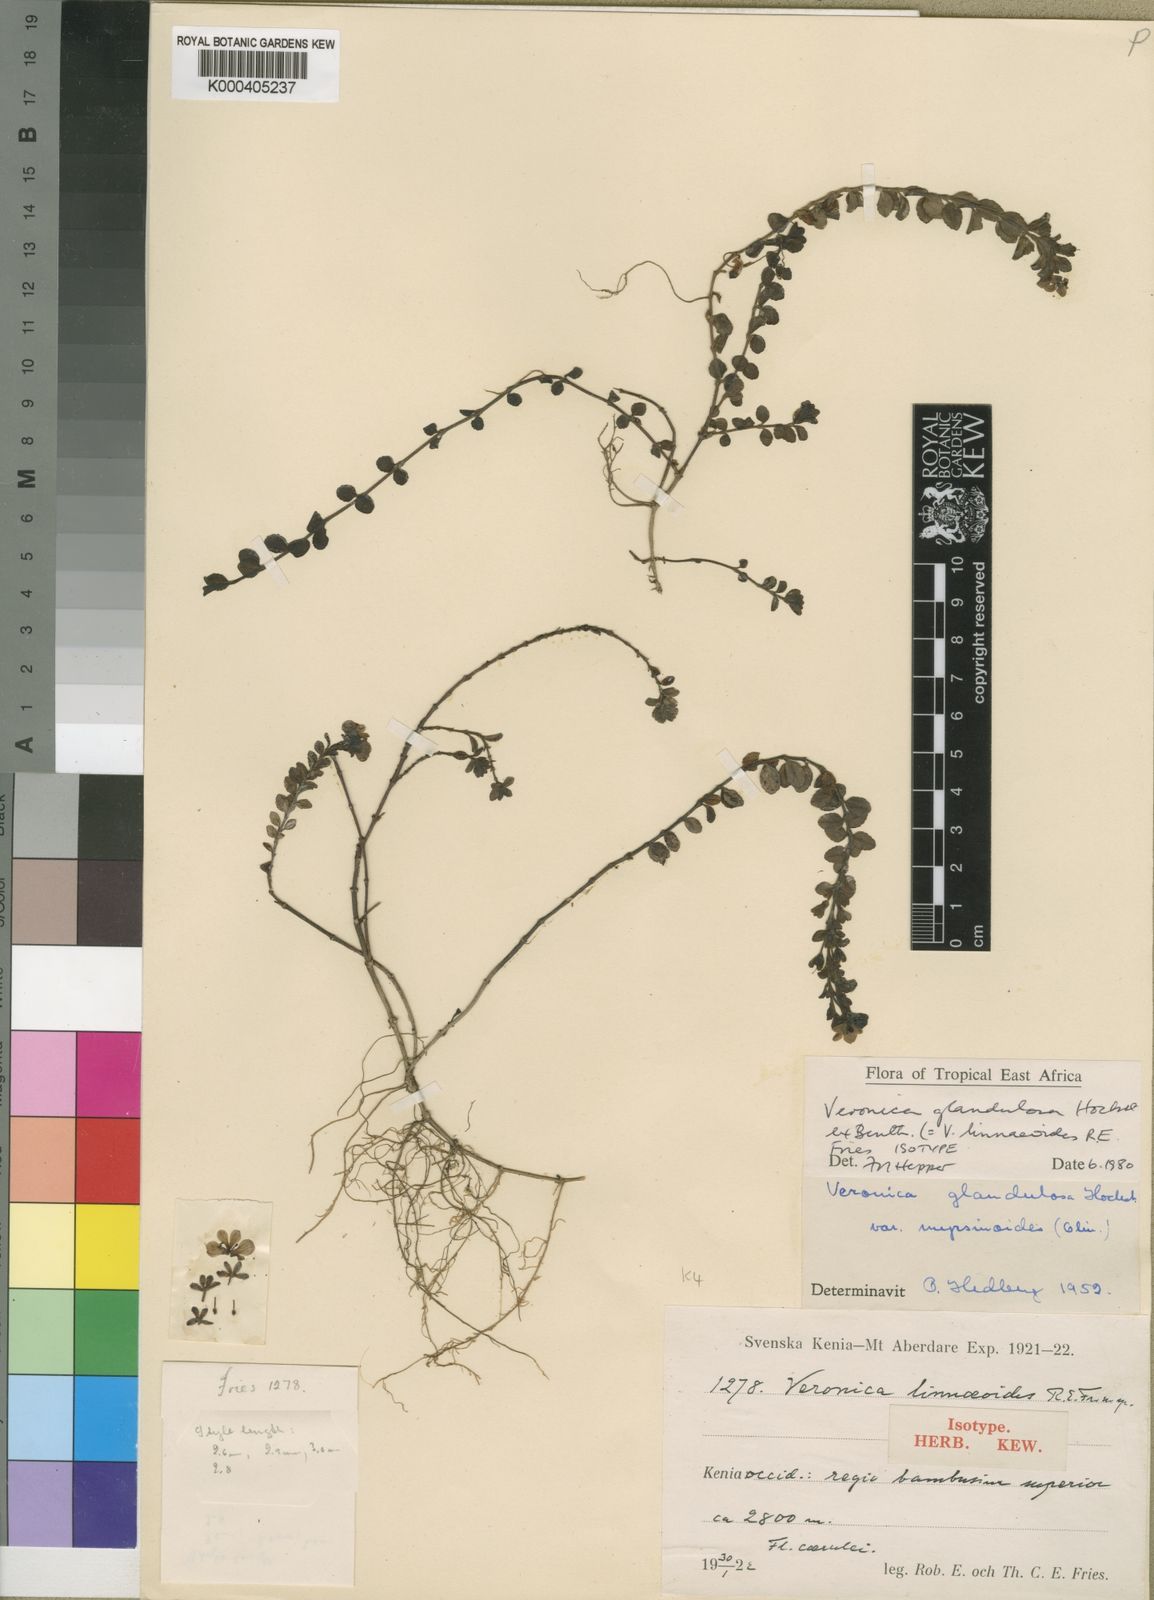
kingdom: Plantae
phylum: Tracheophyta
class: Magnoliopsida
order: Lamiales
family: Plantaginaceae
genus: Veronica
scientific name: Veronica glandulosa
